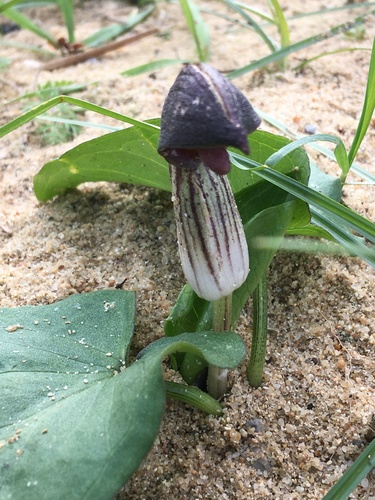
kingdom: Plantae
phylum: Tracheophyta
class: Liliopsida
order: Alismatales
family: Araceae
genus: Arisarum
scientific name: Arisarum simorrhinum
